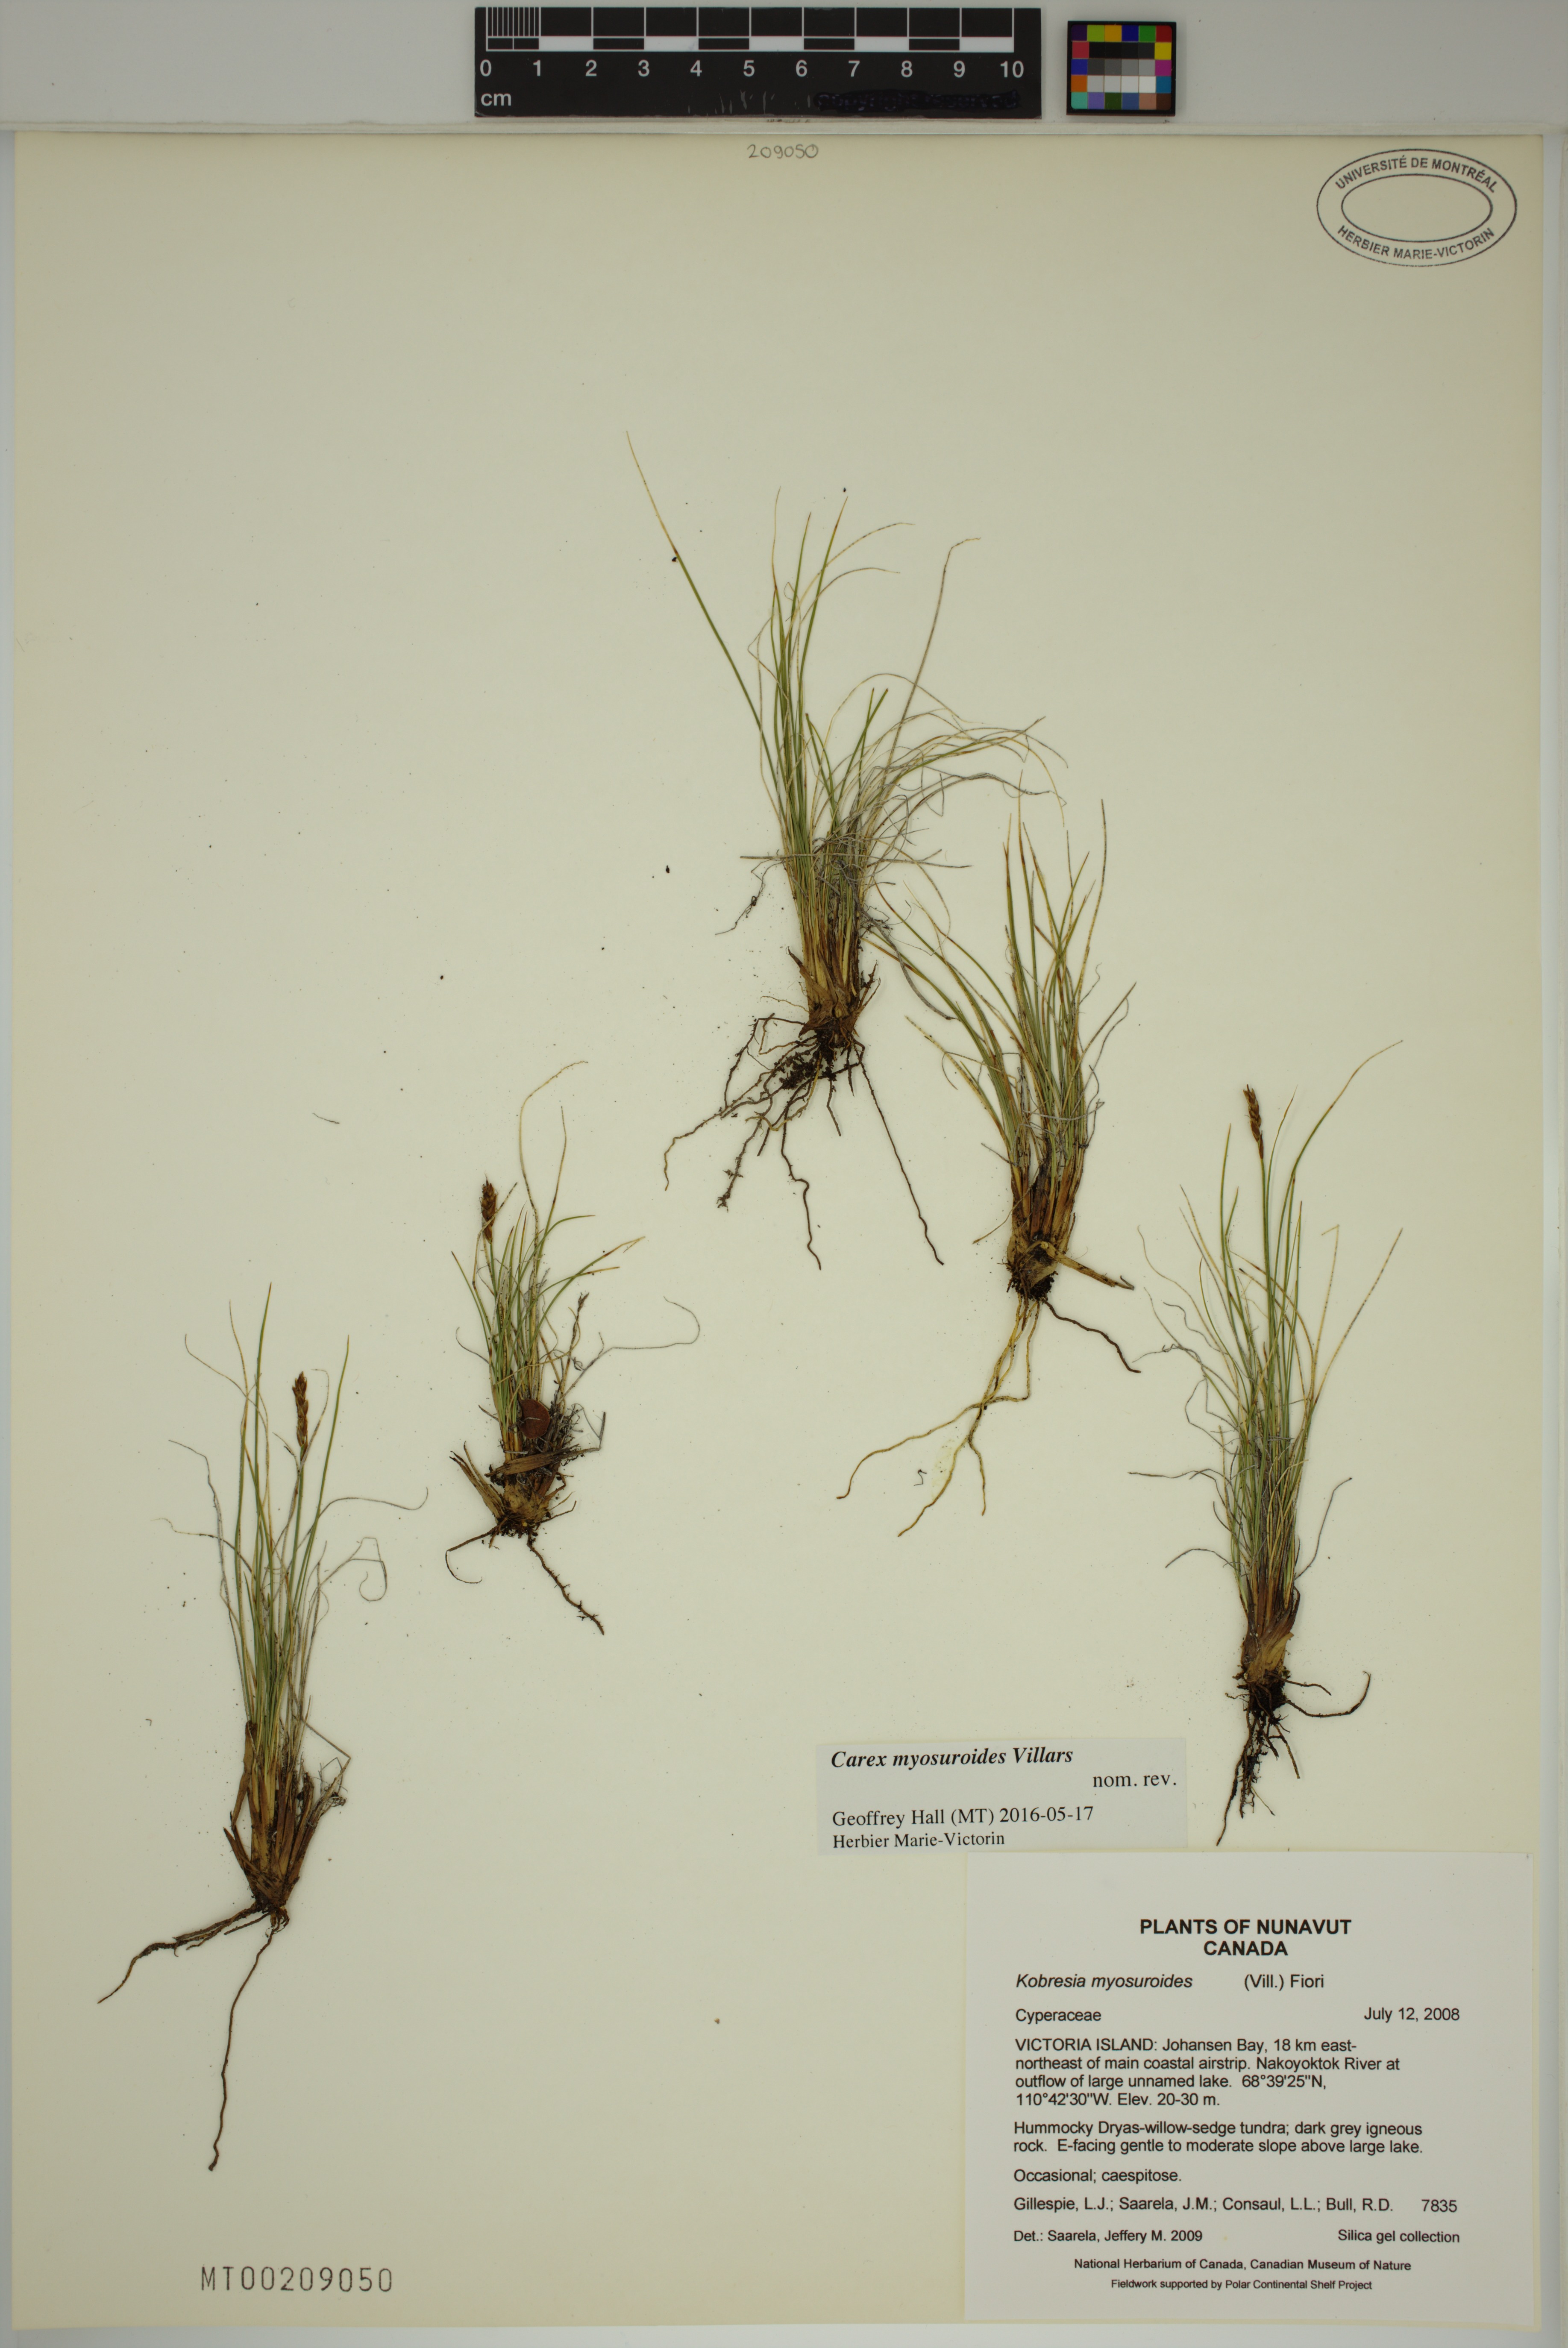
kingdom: Plantae
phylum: Tracheophyta
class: Liliopsida
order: Poales
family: Cyperaceae
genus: Carex
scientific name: Carex myosuroides
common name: Bellard's bog sedge
